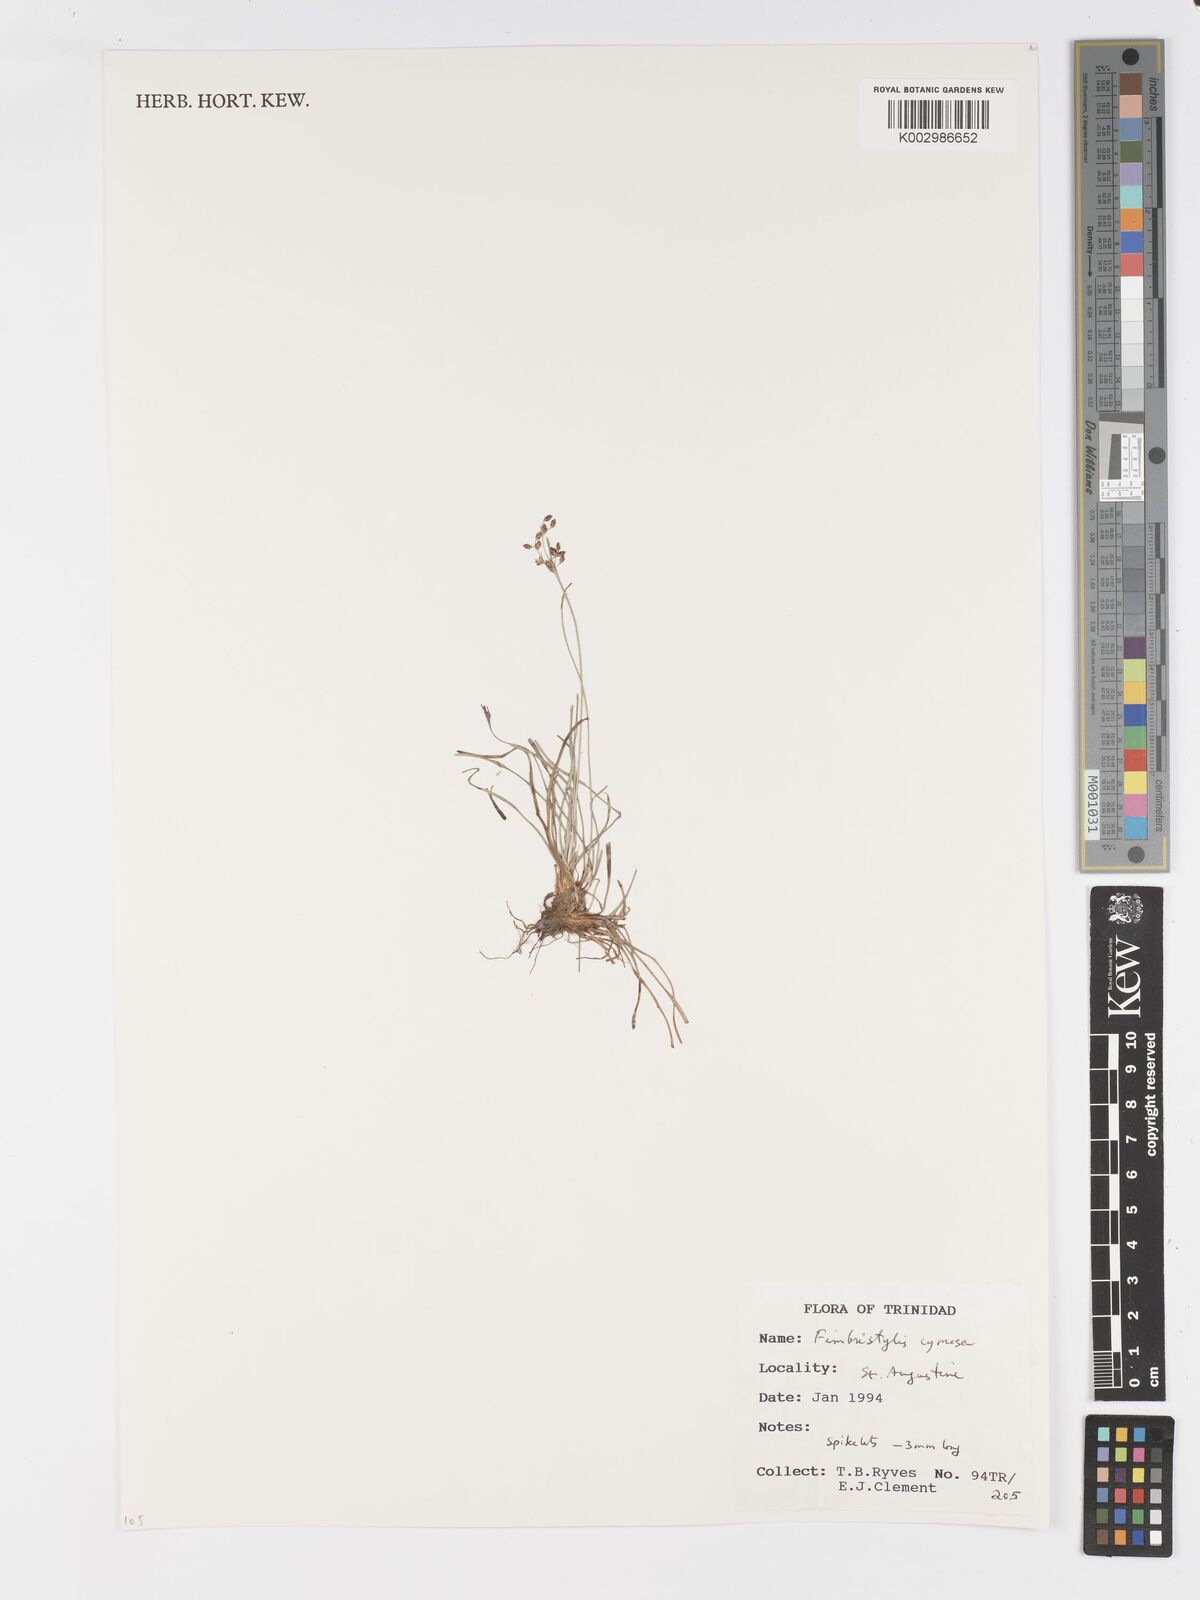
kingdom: Plantae
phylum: Tracheophyta
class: Liliopsida
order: Poales
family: Cyperaceae
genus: Fimbristylis
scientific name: Fimbristylis cymosa
